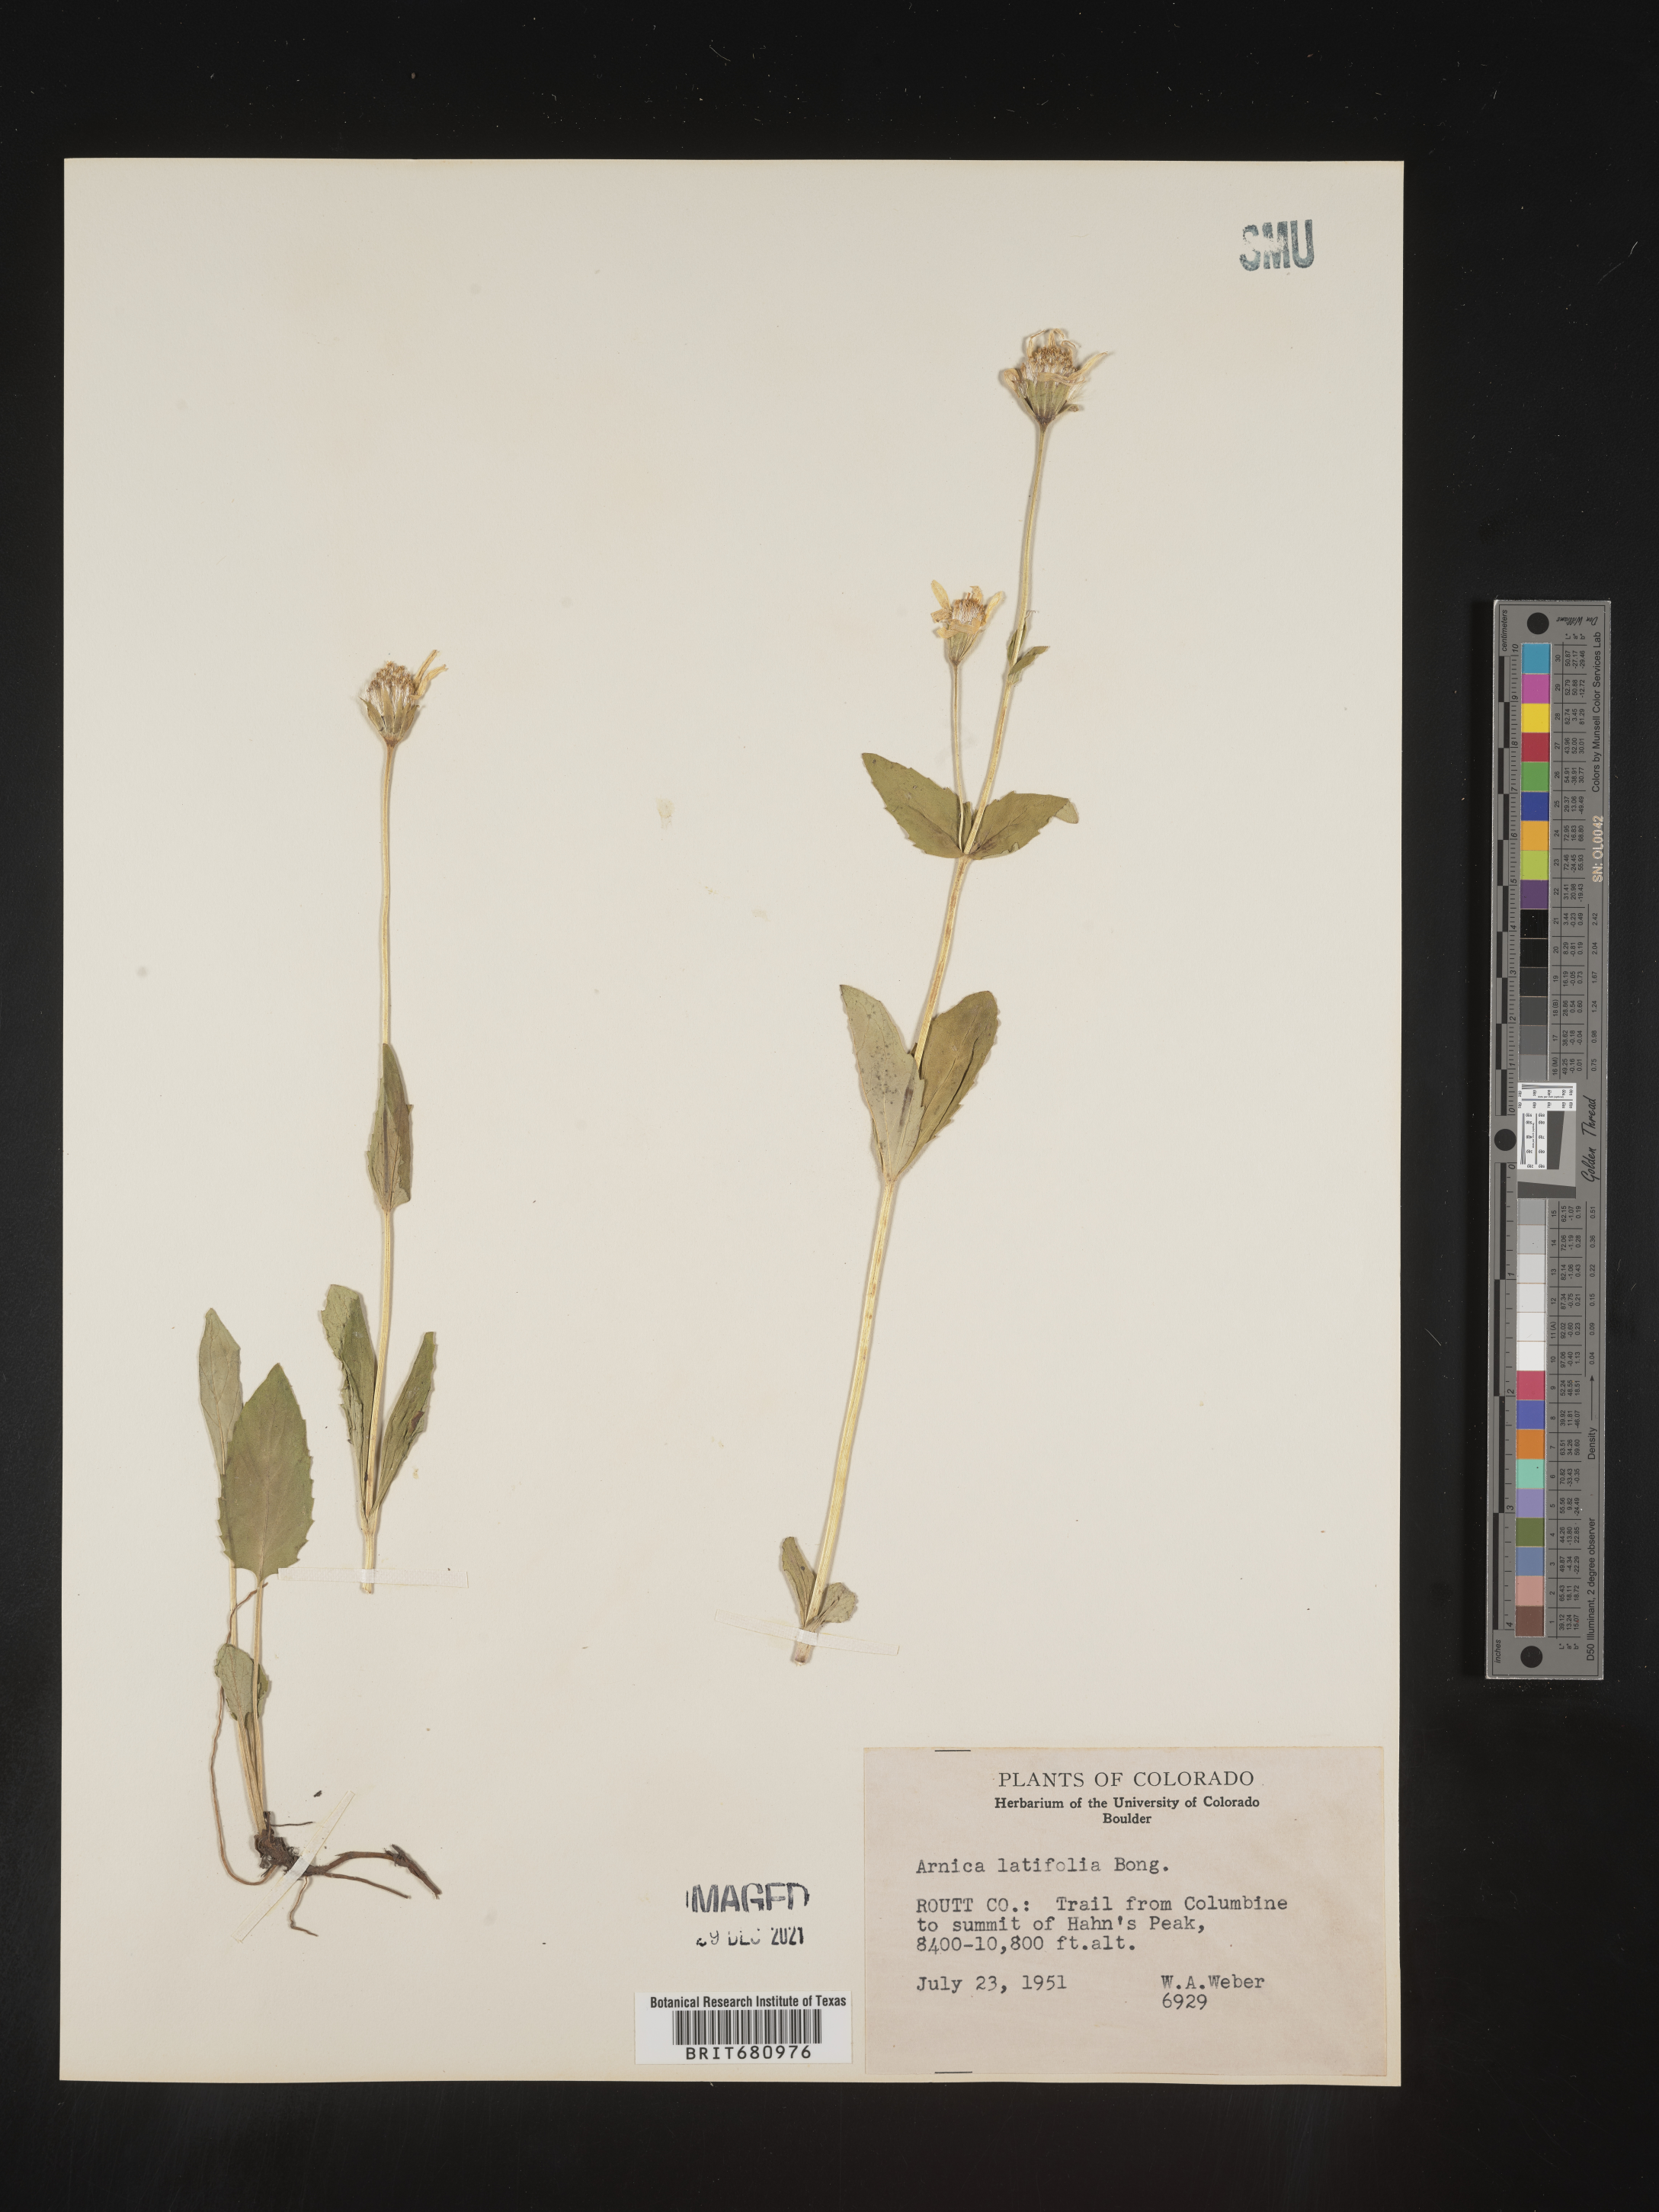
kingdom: Plantae
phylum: Tracheophyta
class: Magnoliopsida
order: Asterales
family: Asteraceae
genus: Arnica
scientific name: Arnica latifolia
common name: Arnica
